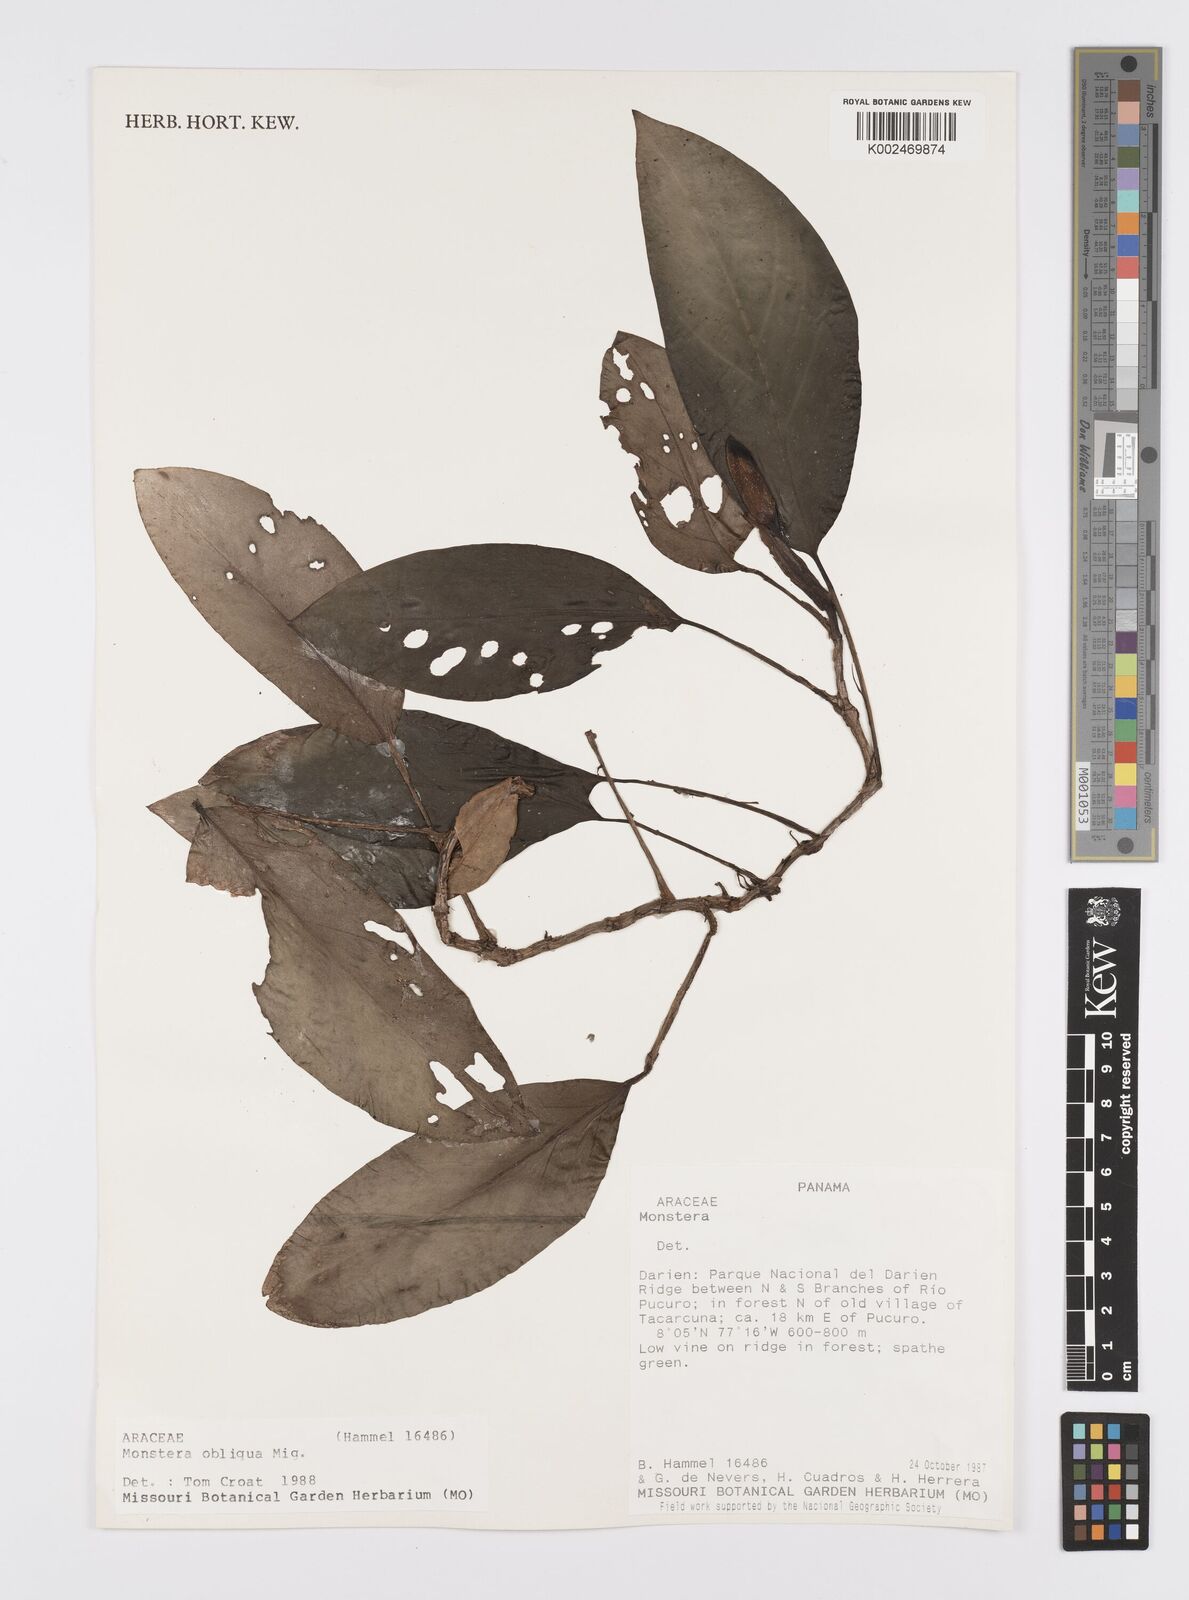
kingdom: Plantae
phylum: Tracheophyta
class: Liliopsida
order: Alismatales
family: Araceae
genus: Monstera
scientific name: Monstera obliqua
